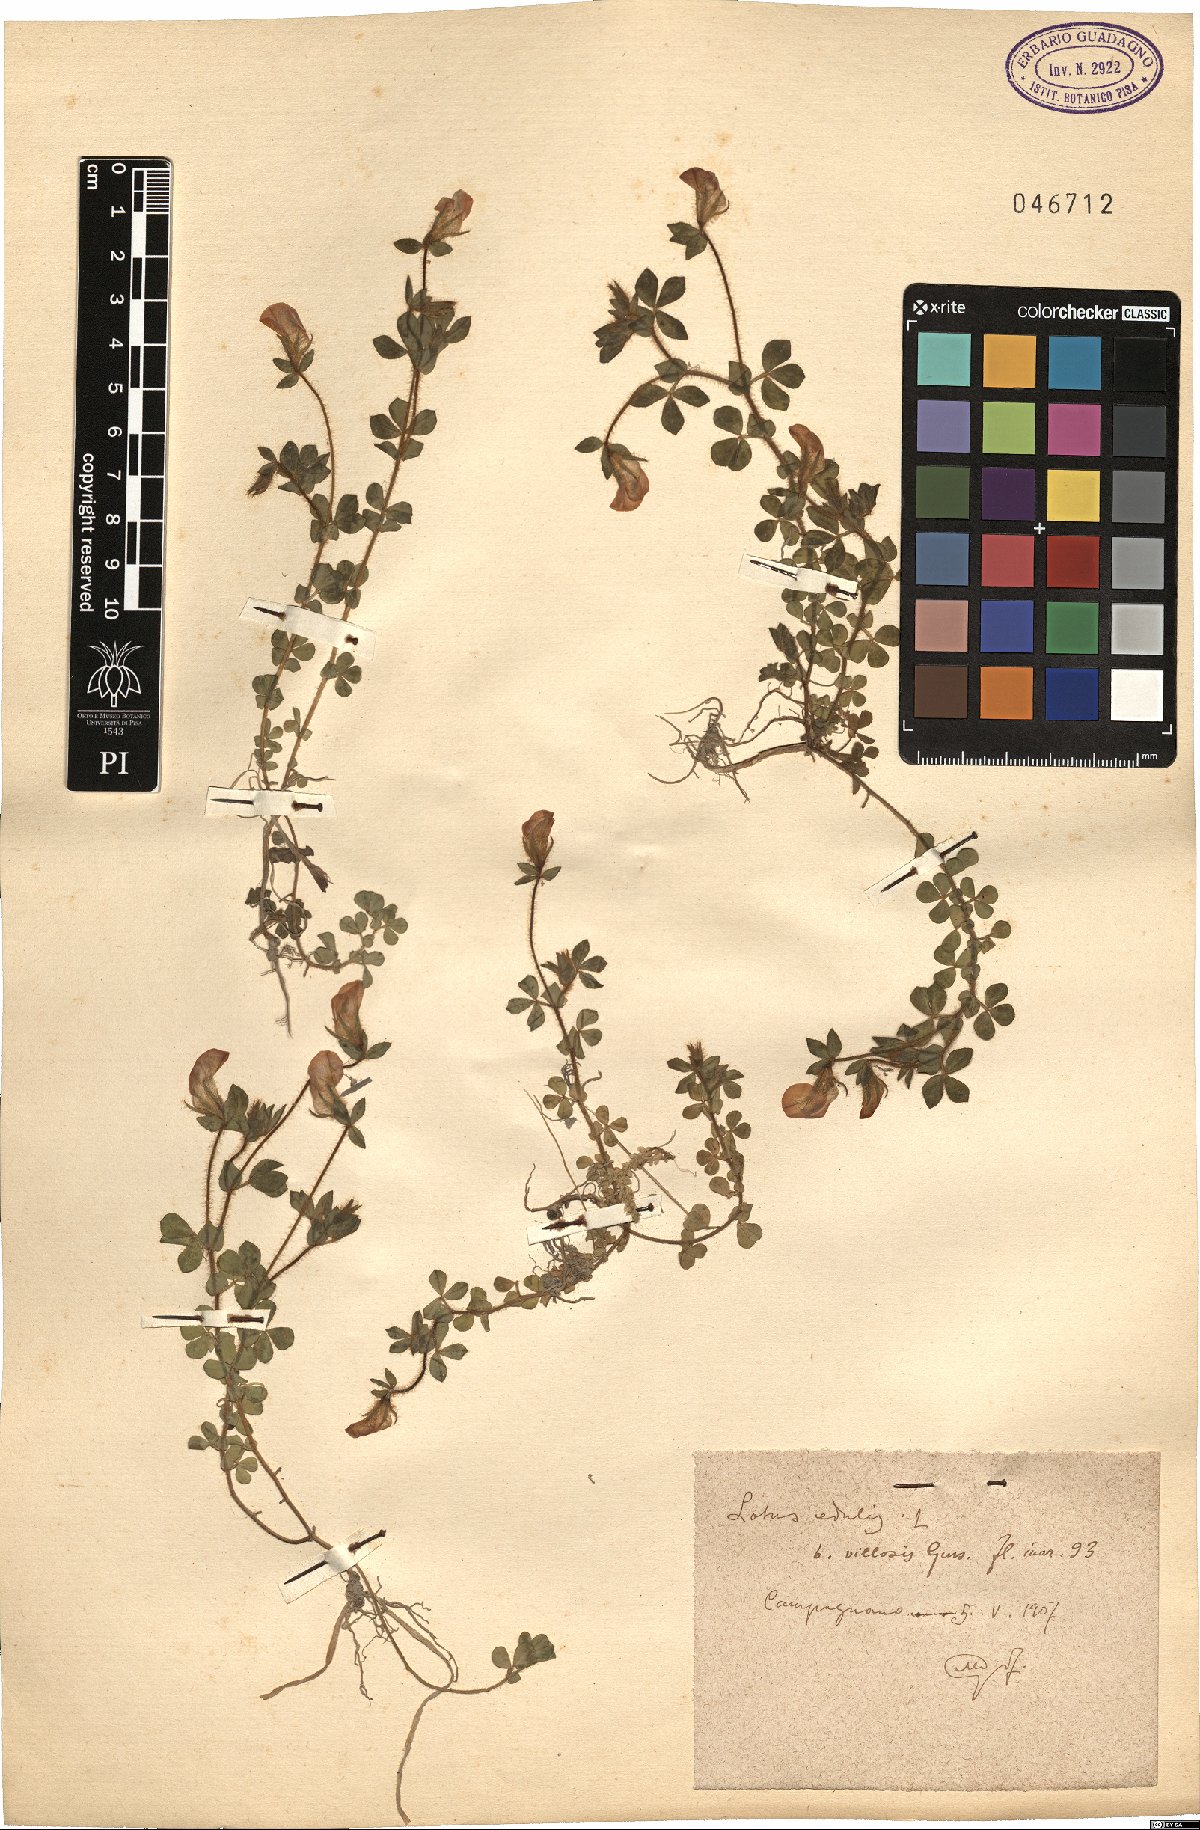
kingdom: Plantae
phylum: Tracheophyta
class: Magnoliopsida
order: Fabales
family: Fabaceae
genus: Lotus
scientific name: Lotus edulis
